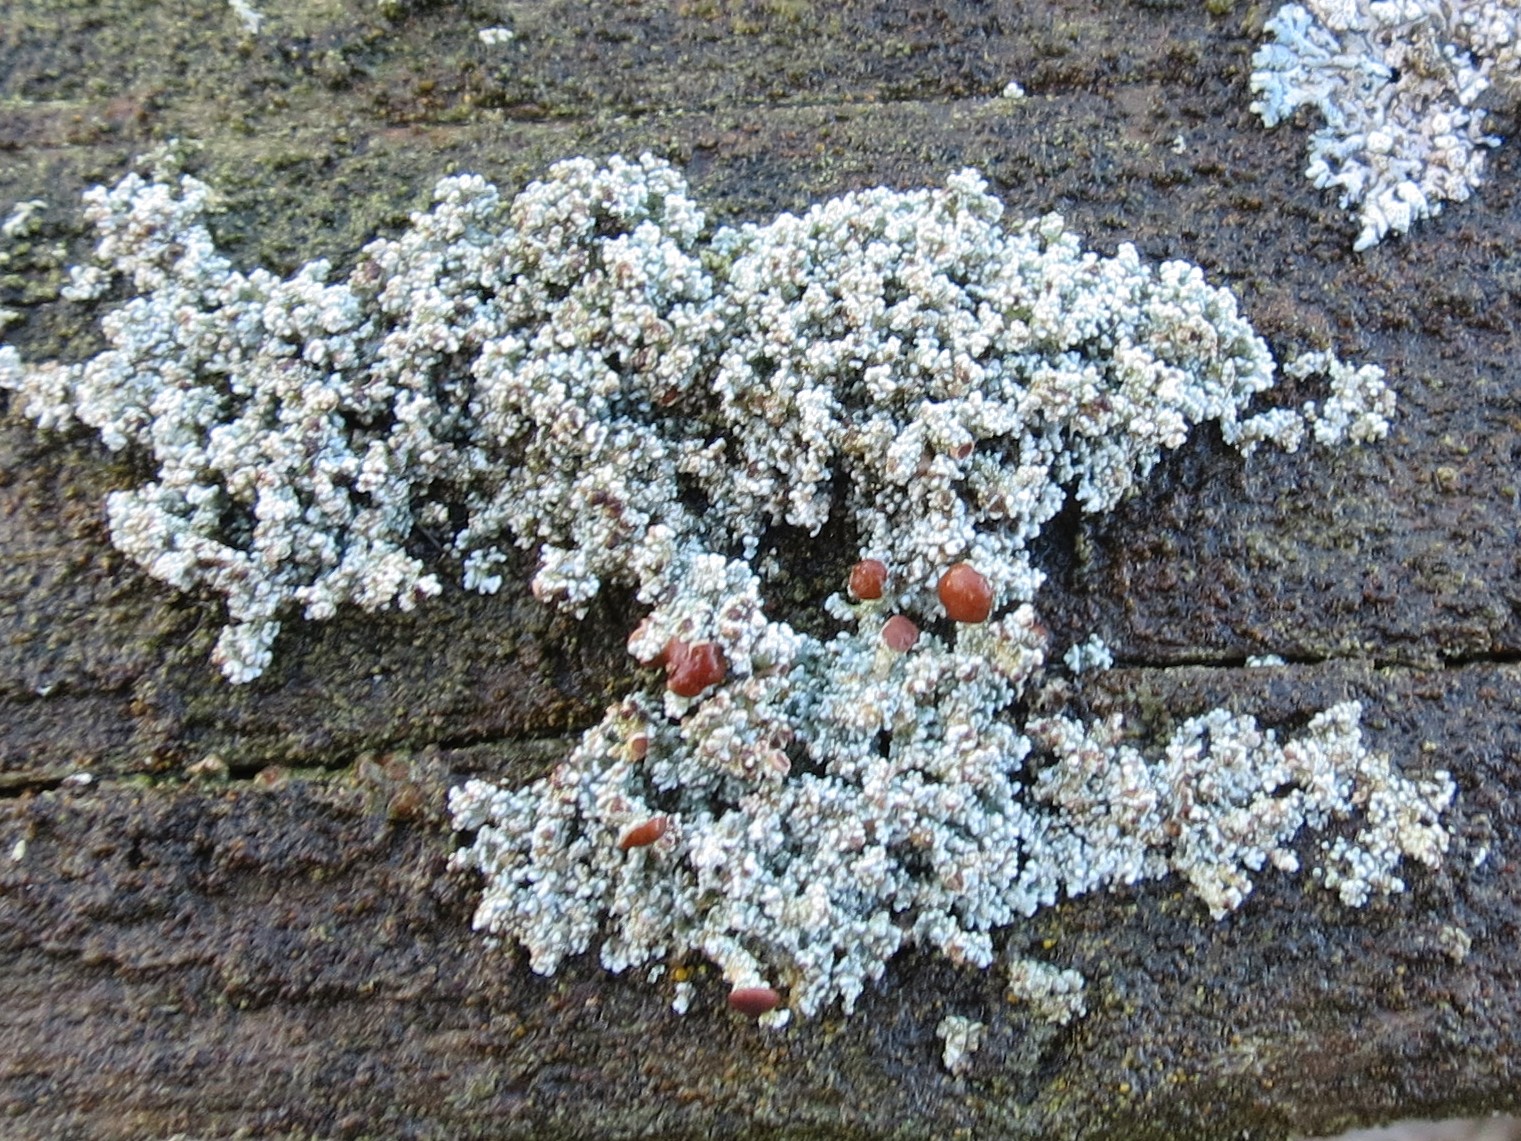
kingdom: Fungi
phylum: Ascomycota
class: Lecanoromycetes
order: Lecanorales
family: Stereocaulaceae
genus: Stereocaulon
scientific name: Stereocaulon dactylophyllum
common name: finger-korallav
